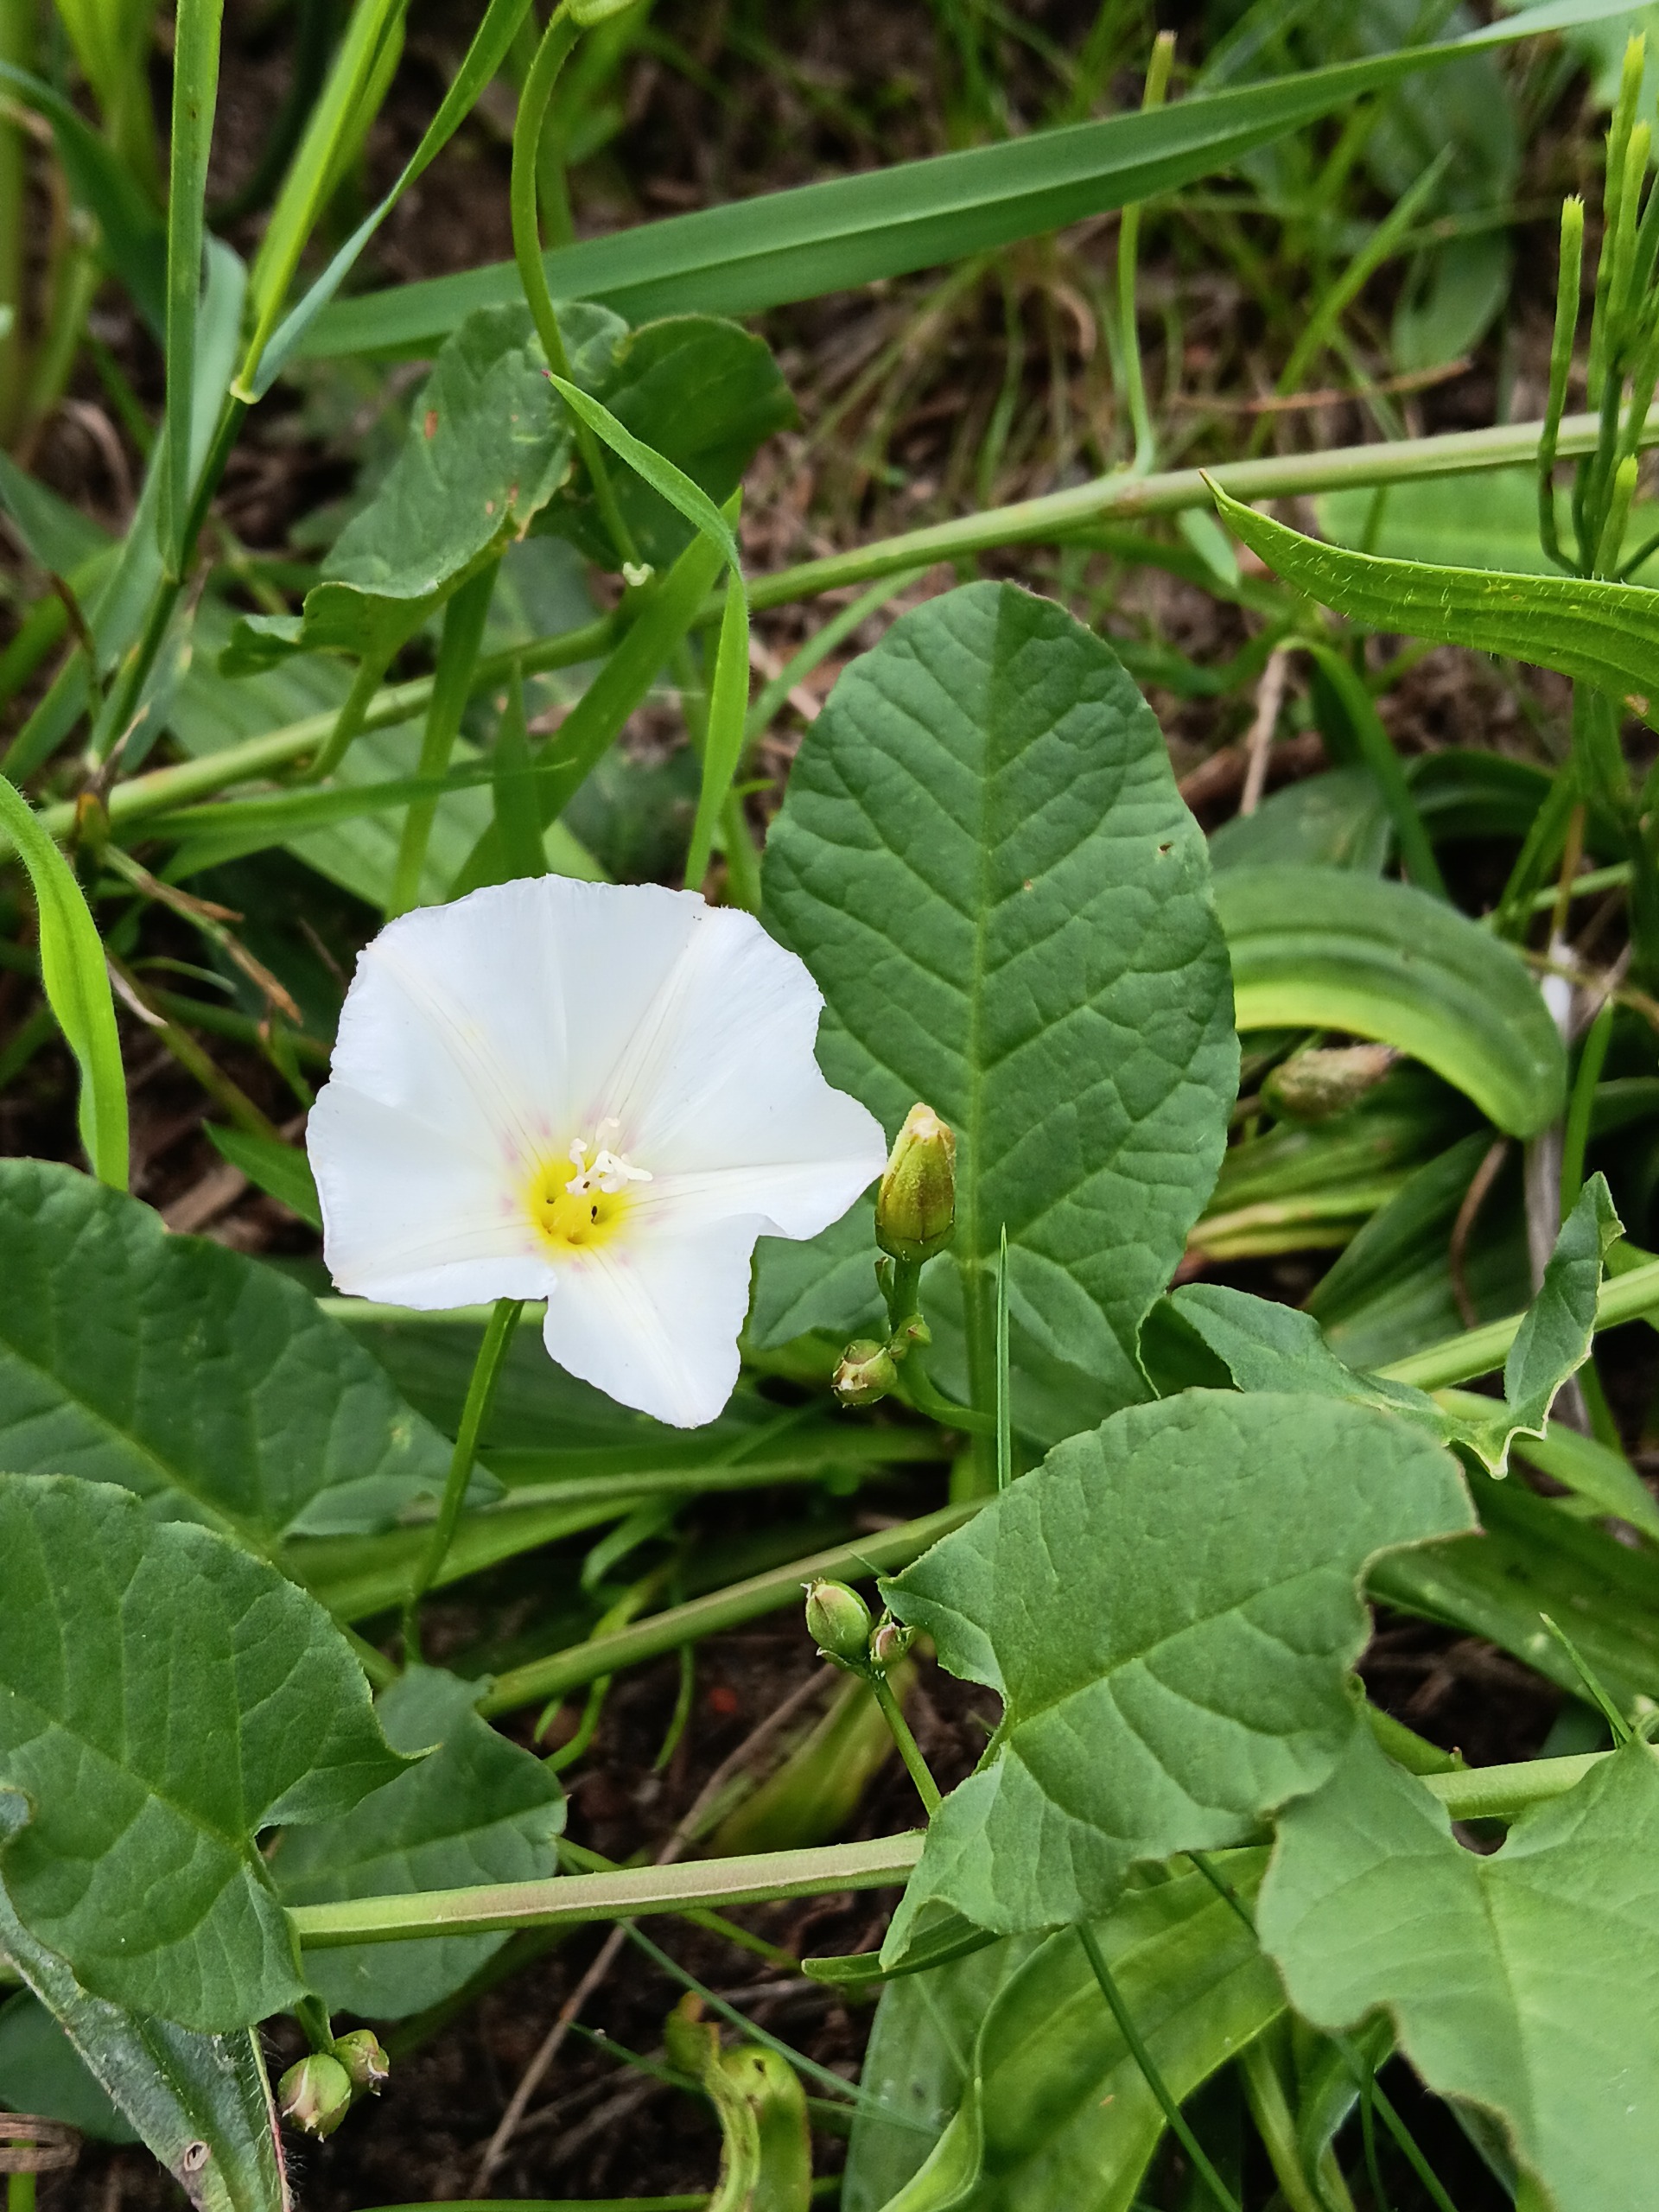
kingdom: Plantae
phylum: Tracheophyta
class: Magnoliopsida
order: Solanales
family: Convolvulaceae
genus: Convolvulus
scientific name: Convolvulus arvensis
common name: Ager-snerle
